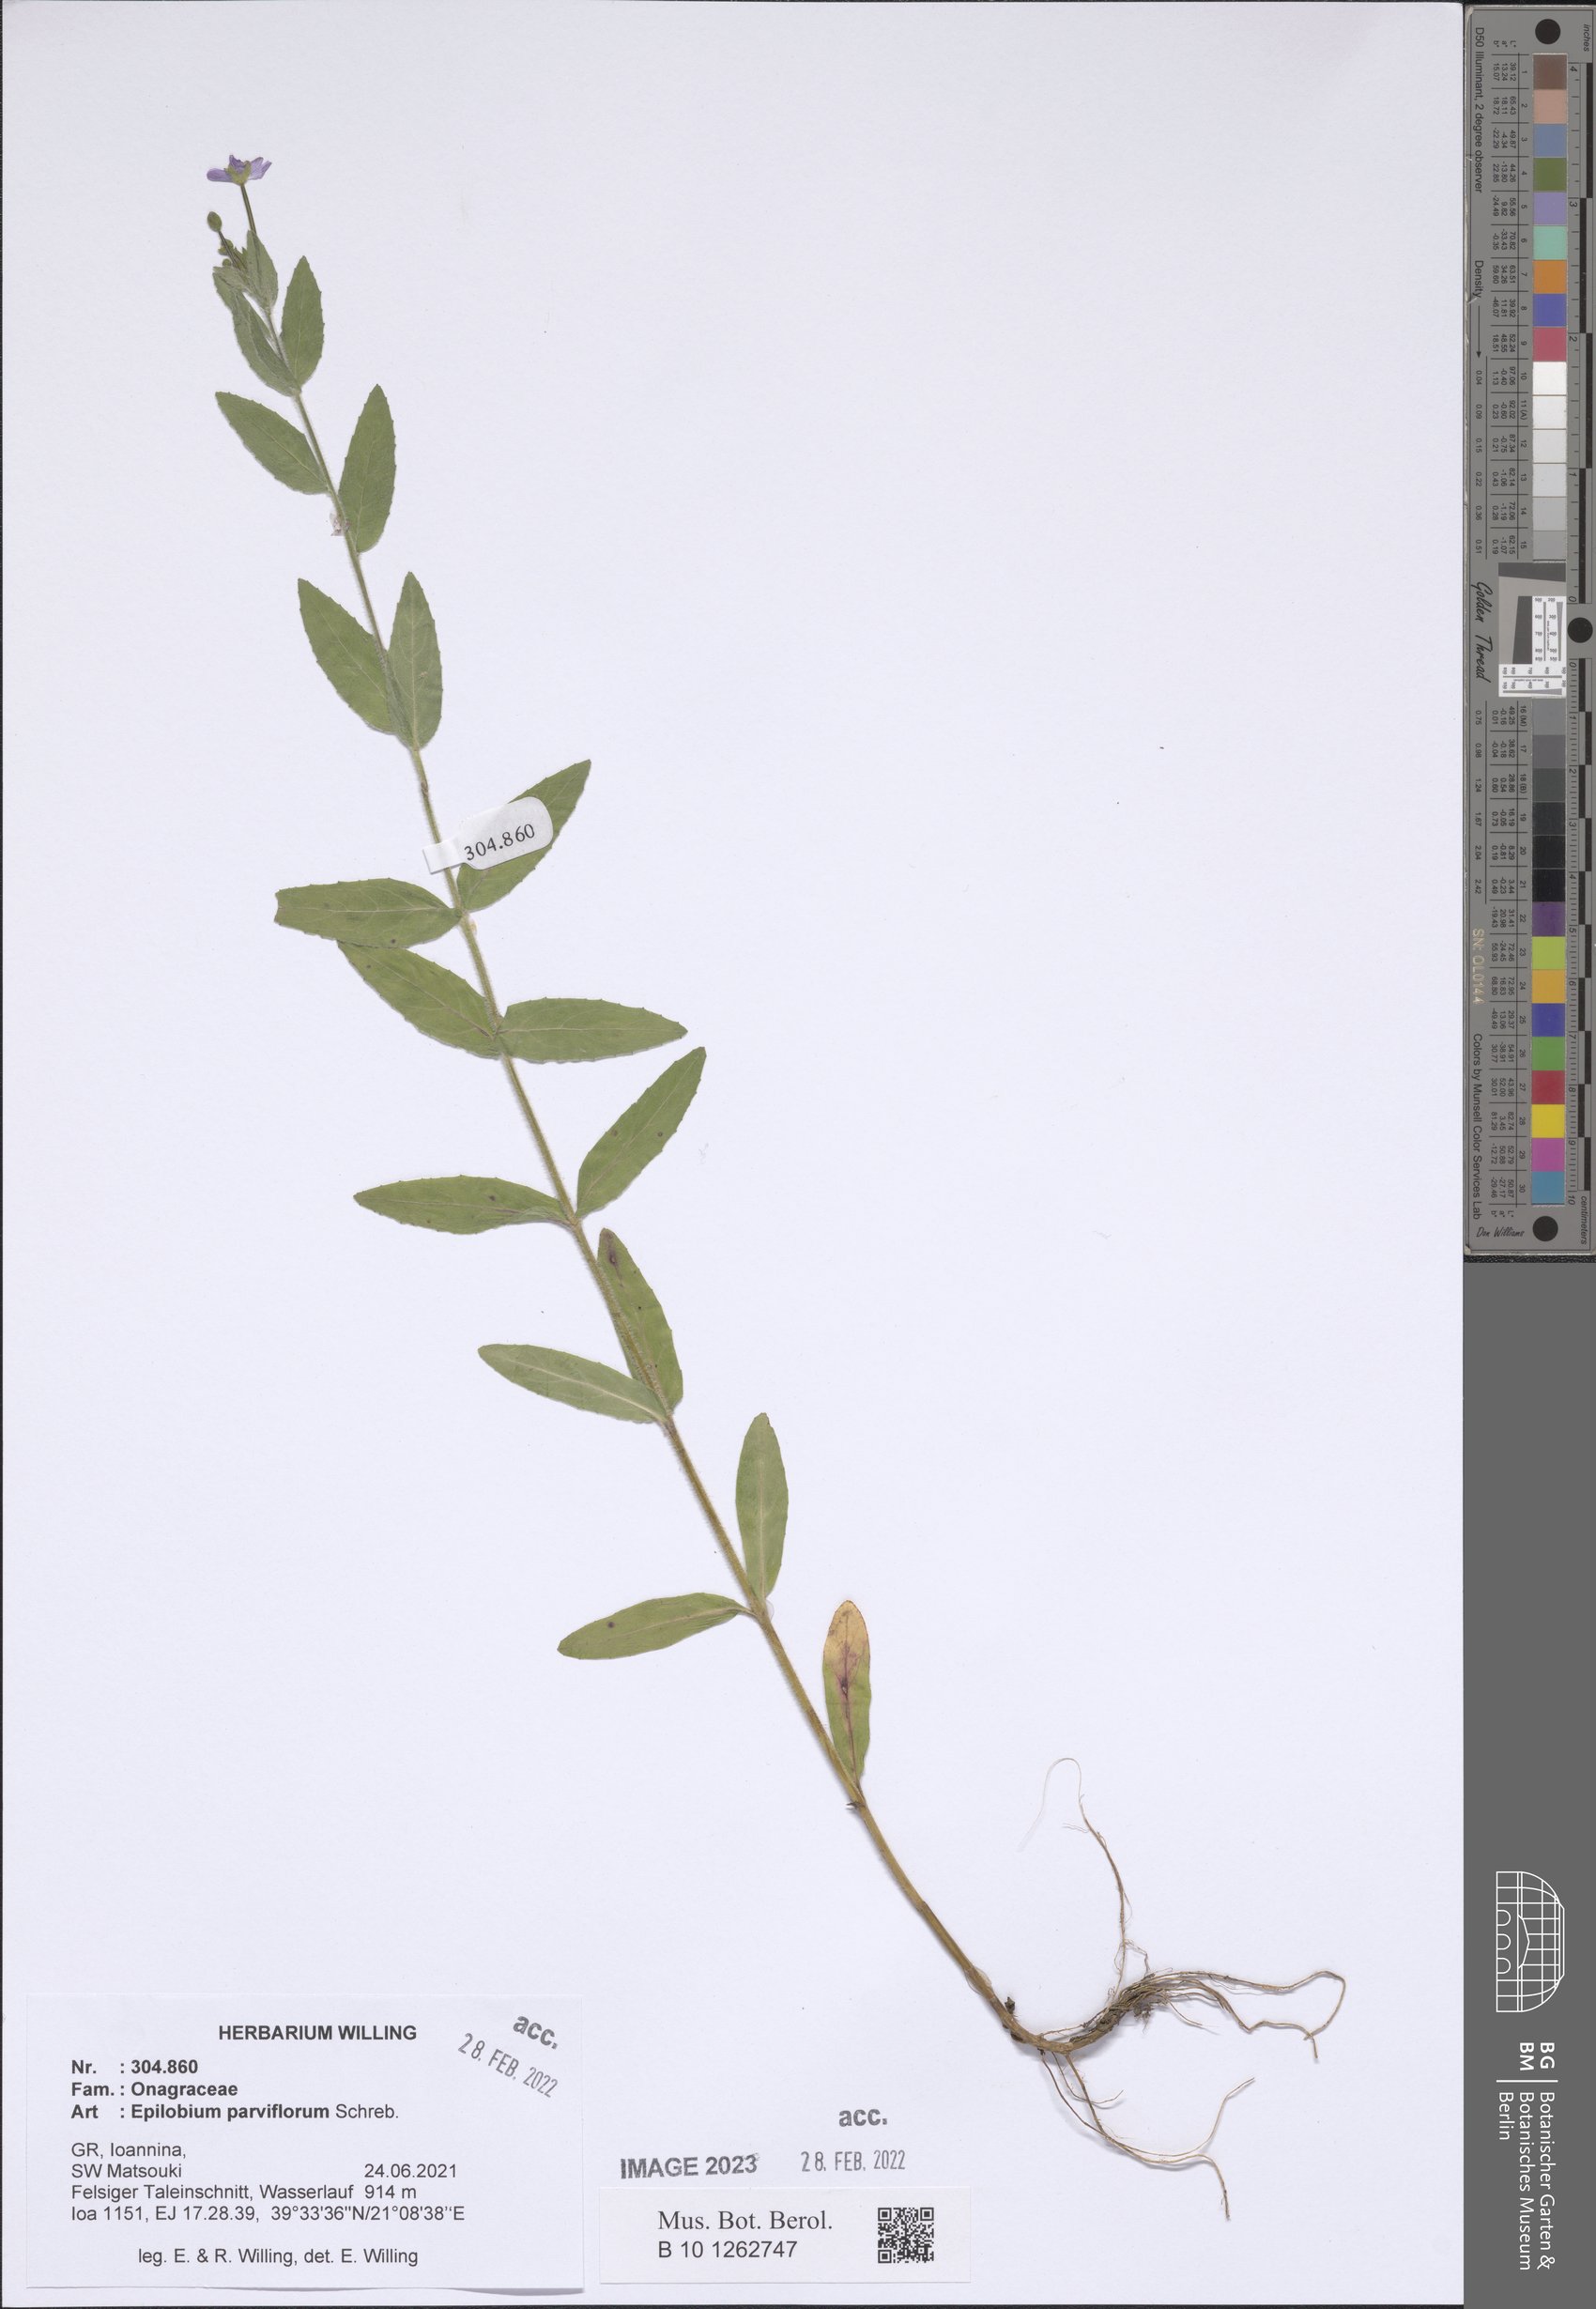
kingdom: Plantae
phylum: Tracheophyta
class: Magnoliopsida
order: Myrtales
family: Onagraceae
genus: Epilobium
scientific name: Epilobium parviflorum
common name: Hoary willowherb
